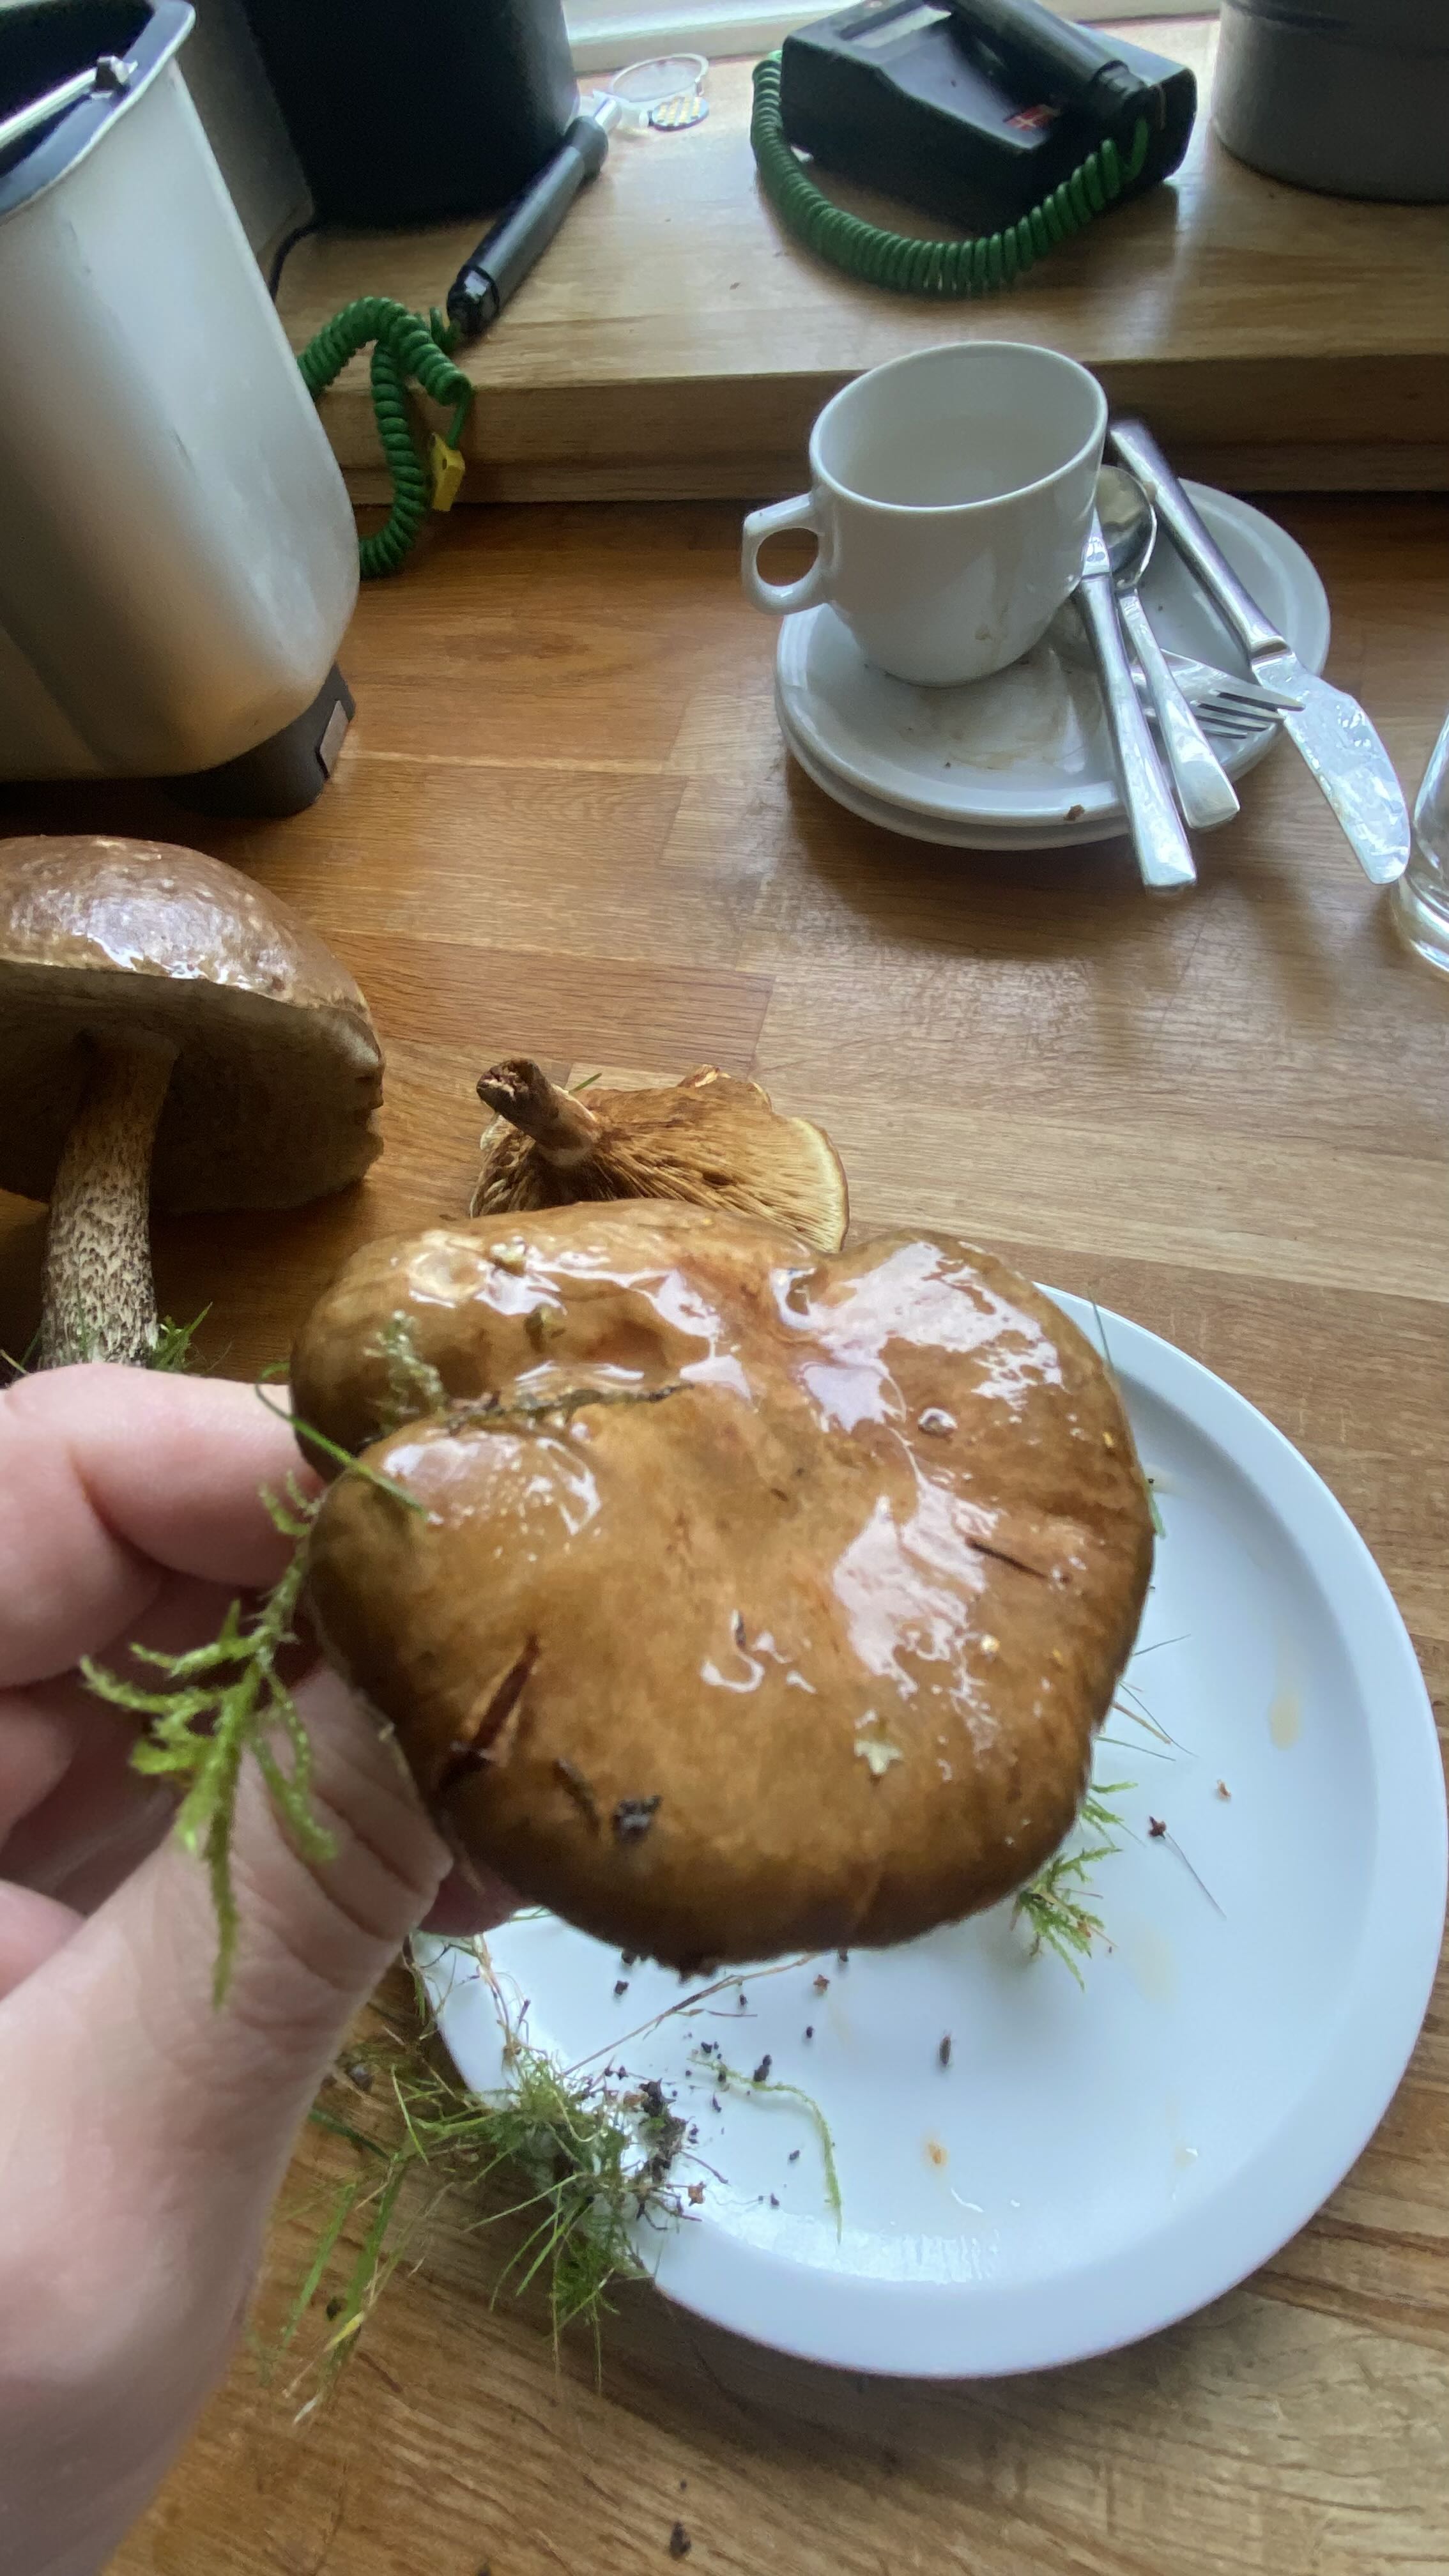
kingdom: Fungi
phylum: Basidiomycota
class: Agaricomycetes
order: Boletales
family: Paxillaceae
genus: Paxillus
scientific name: Paxillus involutus
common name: almindelig netbladhat
